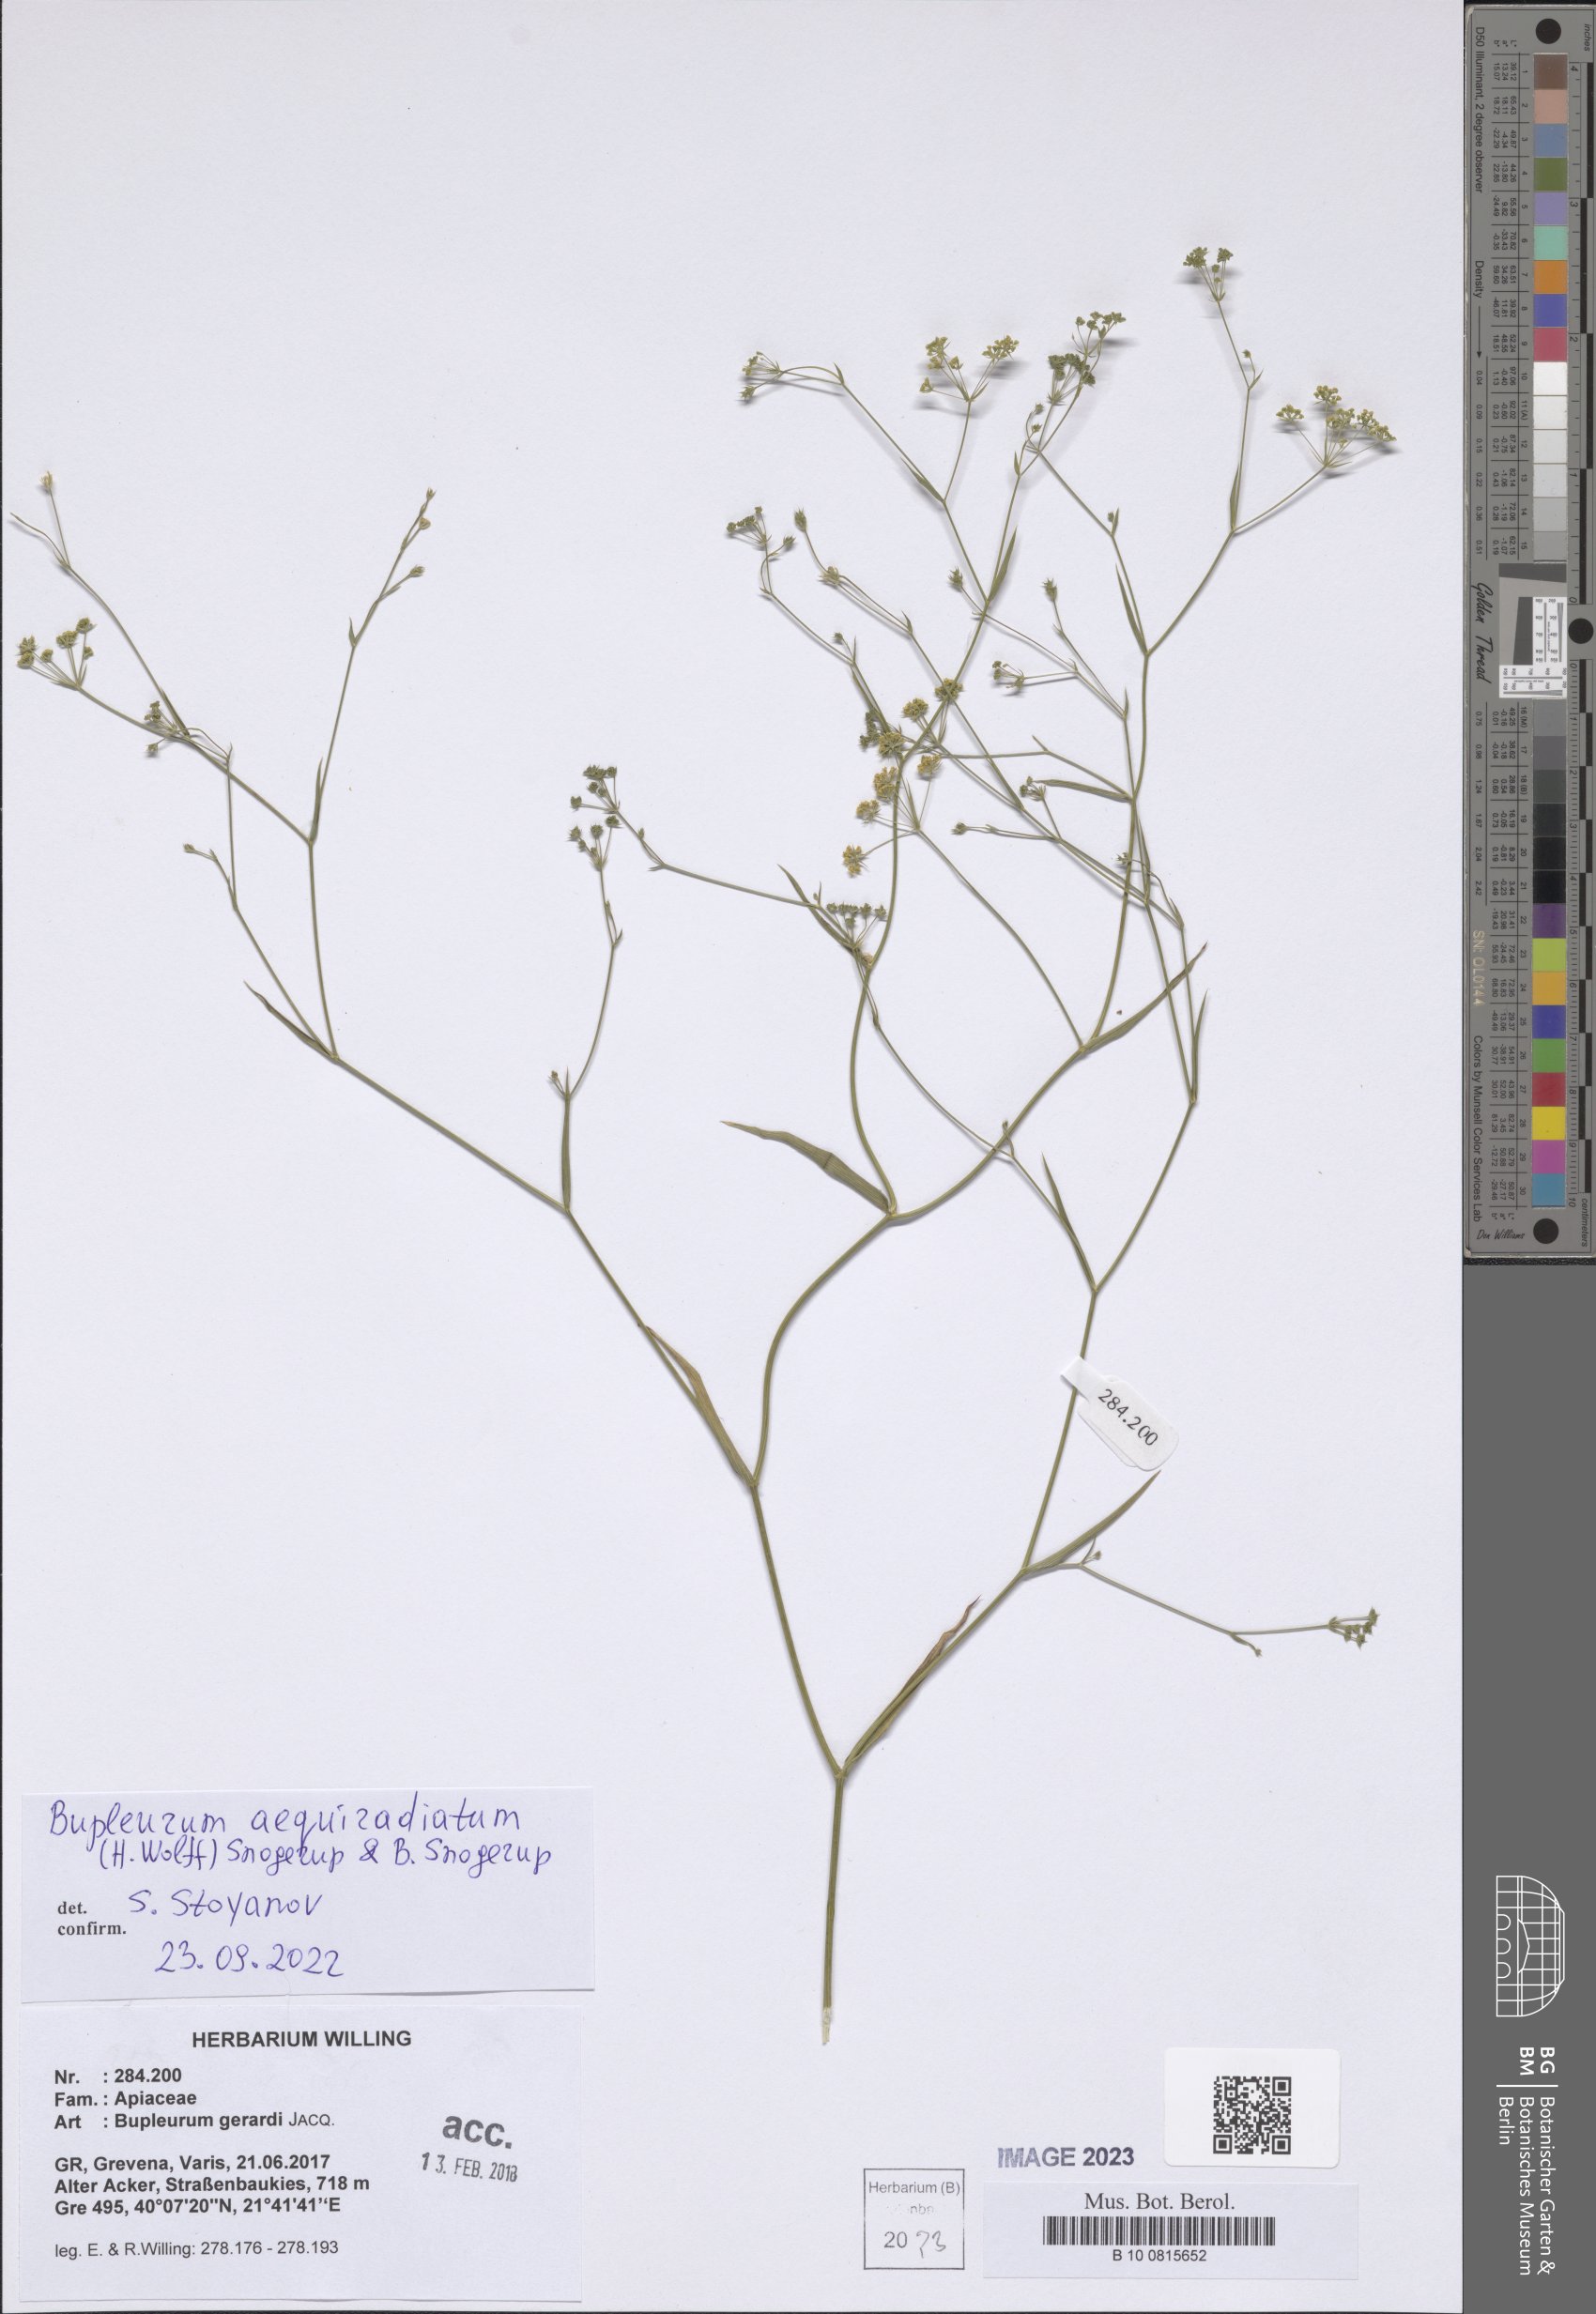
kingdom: Plantae
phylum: Tracheophyta
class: Magnoliopsida
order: Apiales
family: Apiaceae
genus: Bupleurum
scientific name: Bupleurum aequiradiatum
